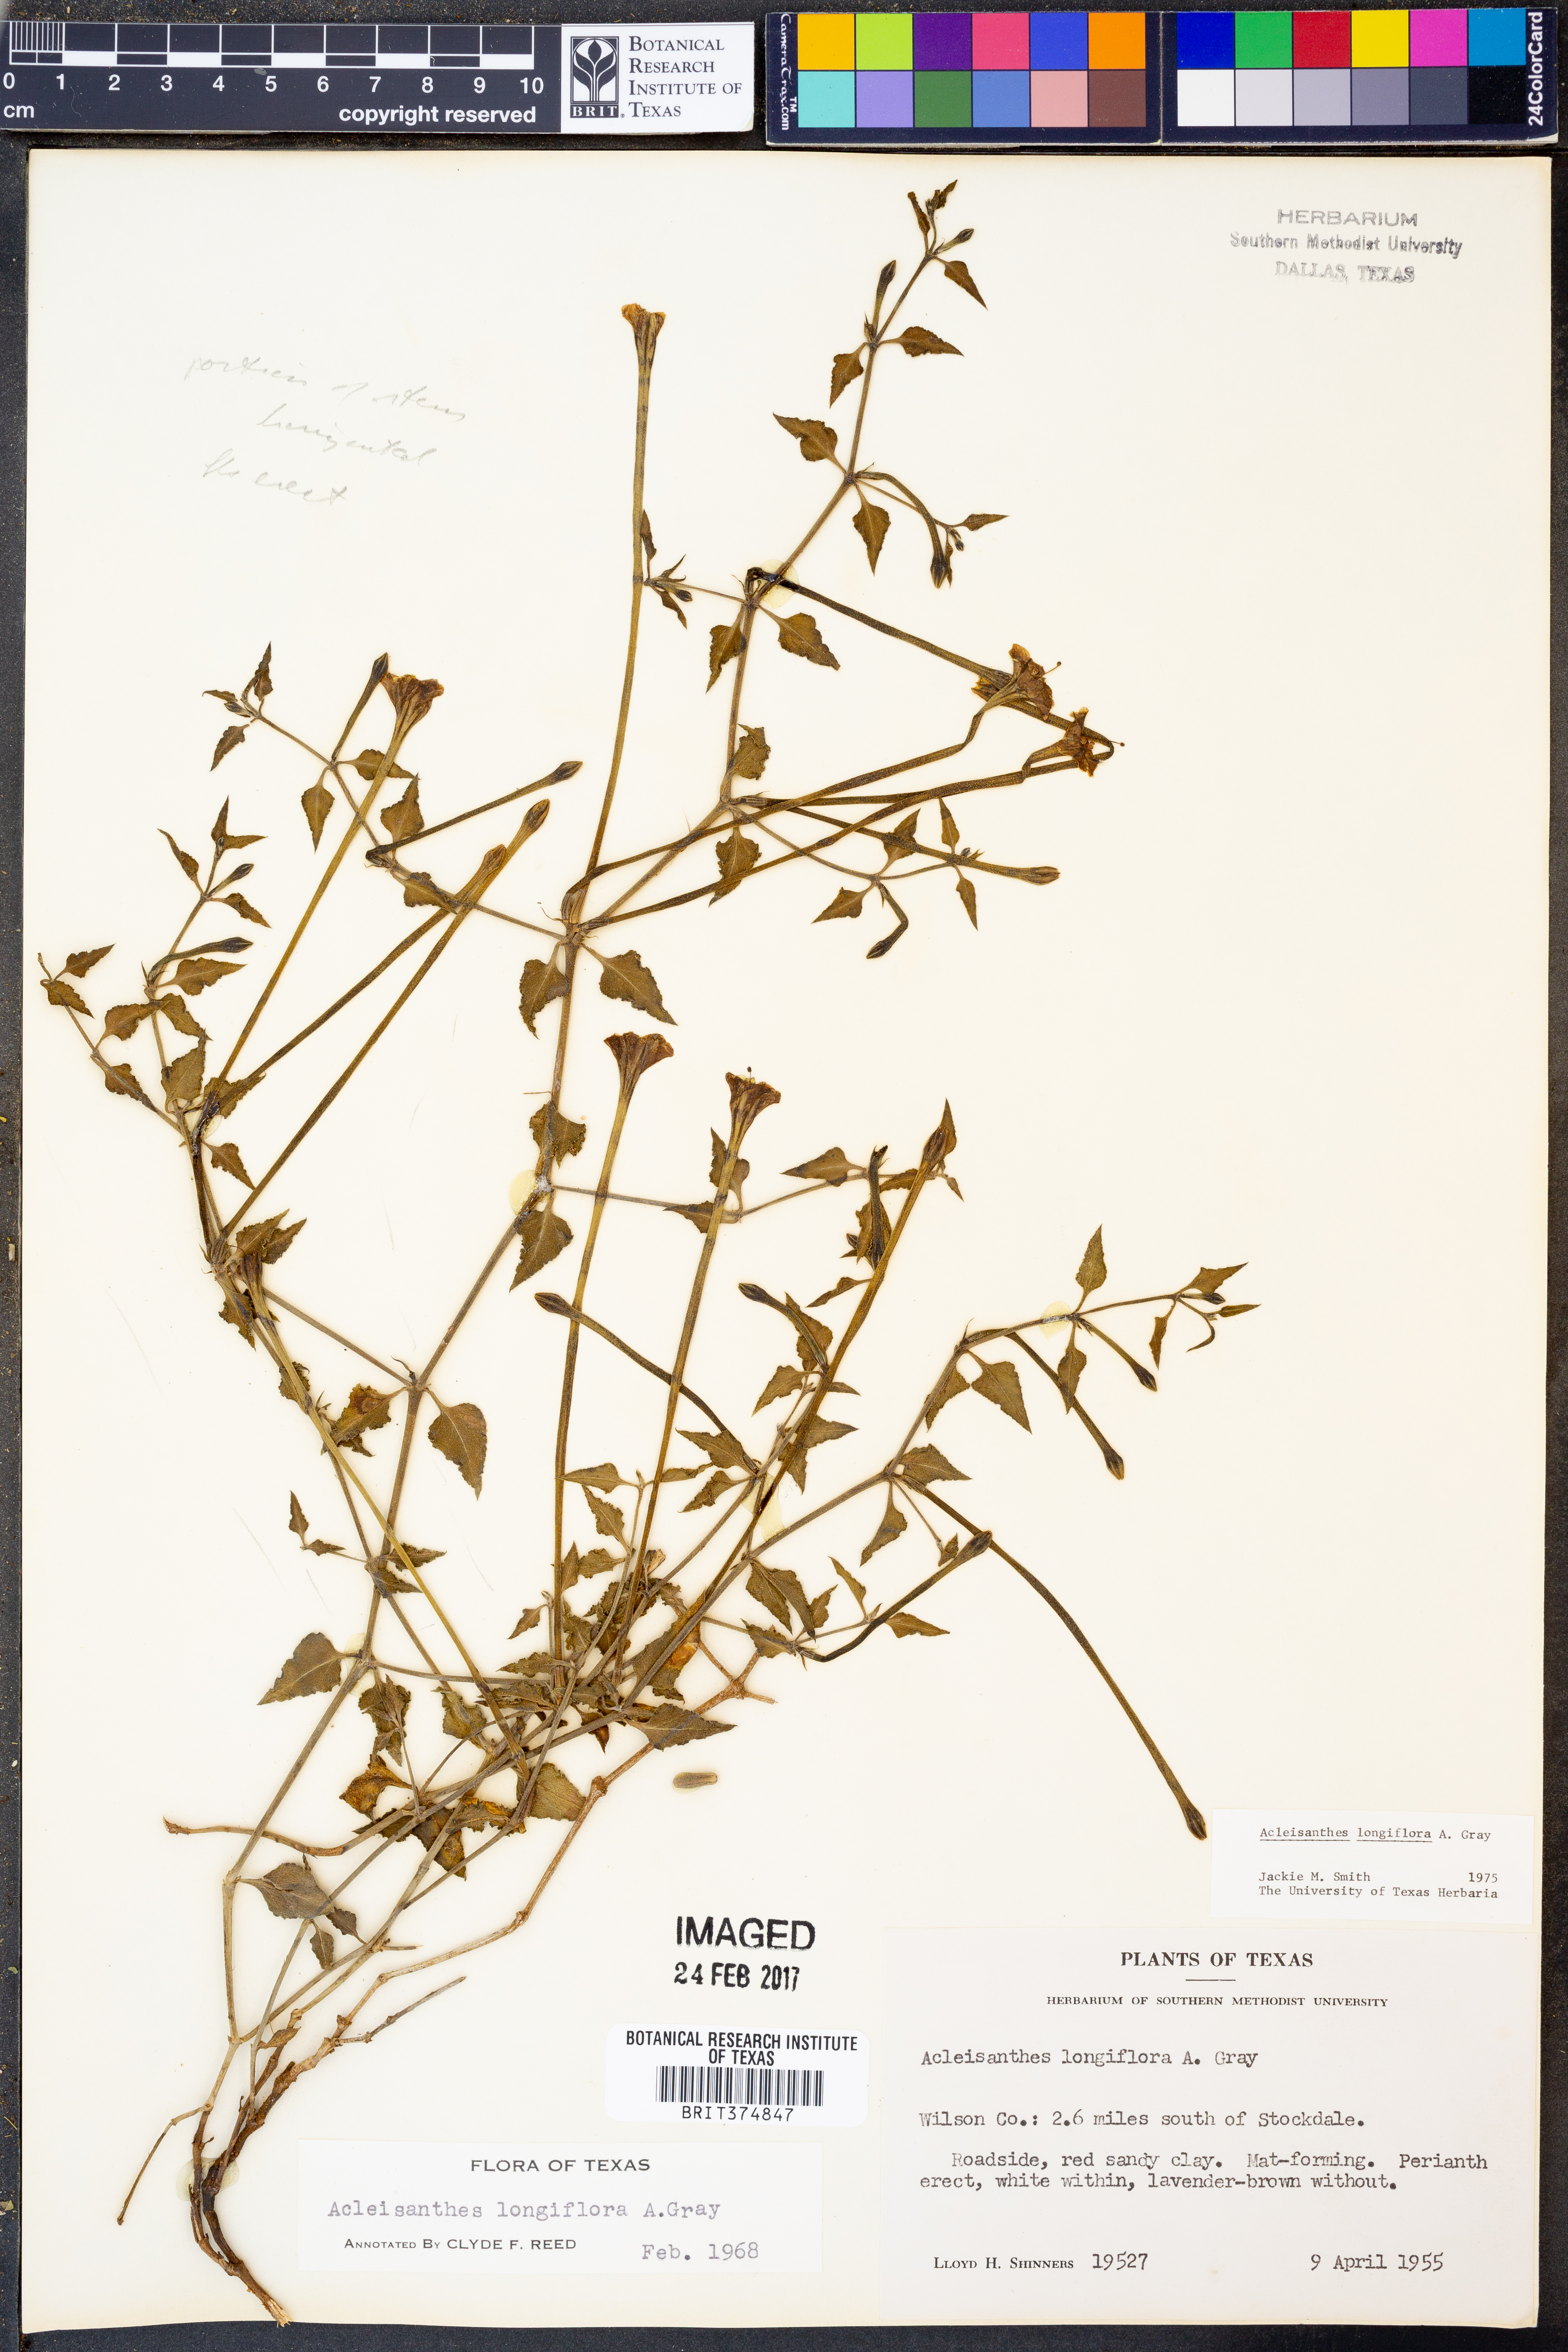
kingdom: Plantae
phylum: Tracheophyta
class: Magnoliopsida
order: Caryophyllales
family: Nyctaginaceae
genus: Acleisanthes
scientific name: Acleisanthes longiflora
